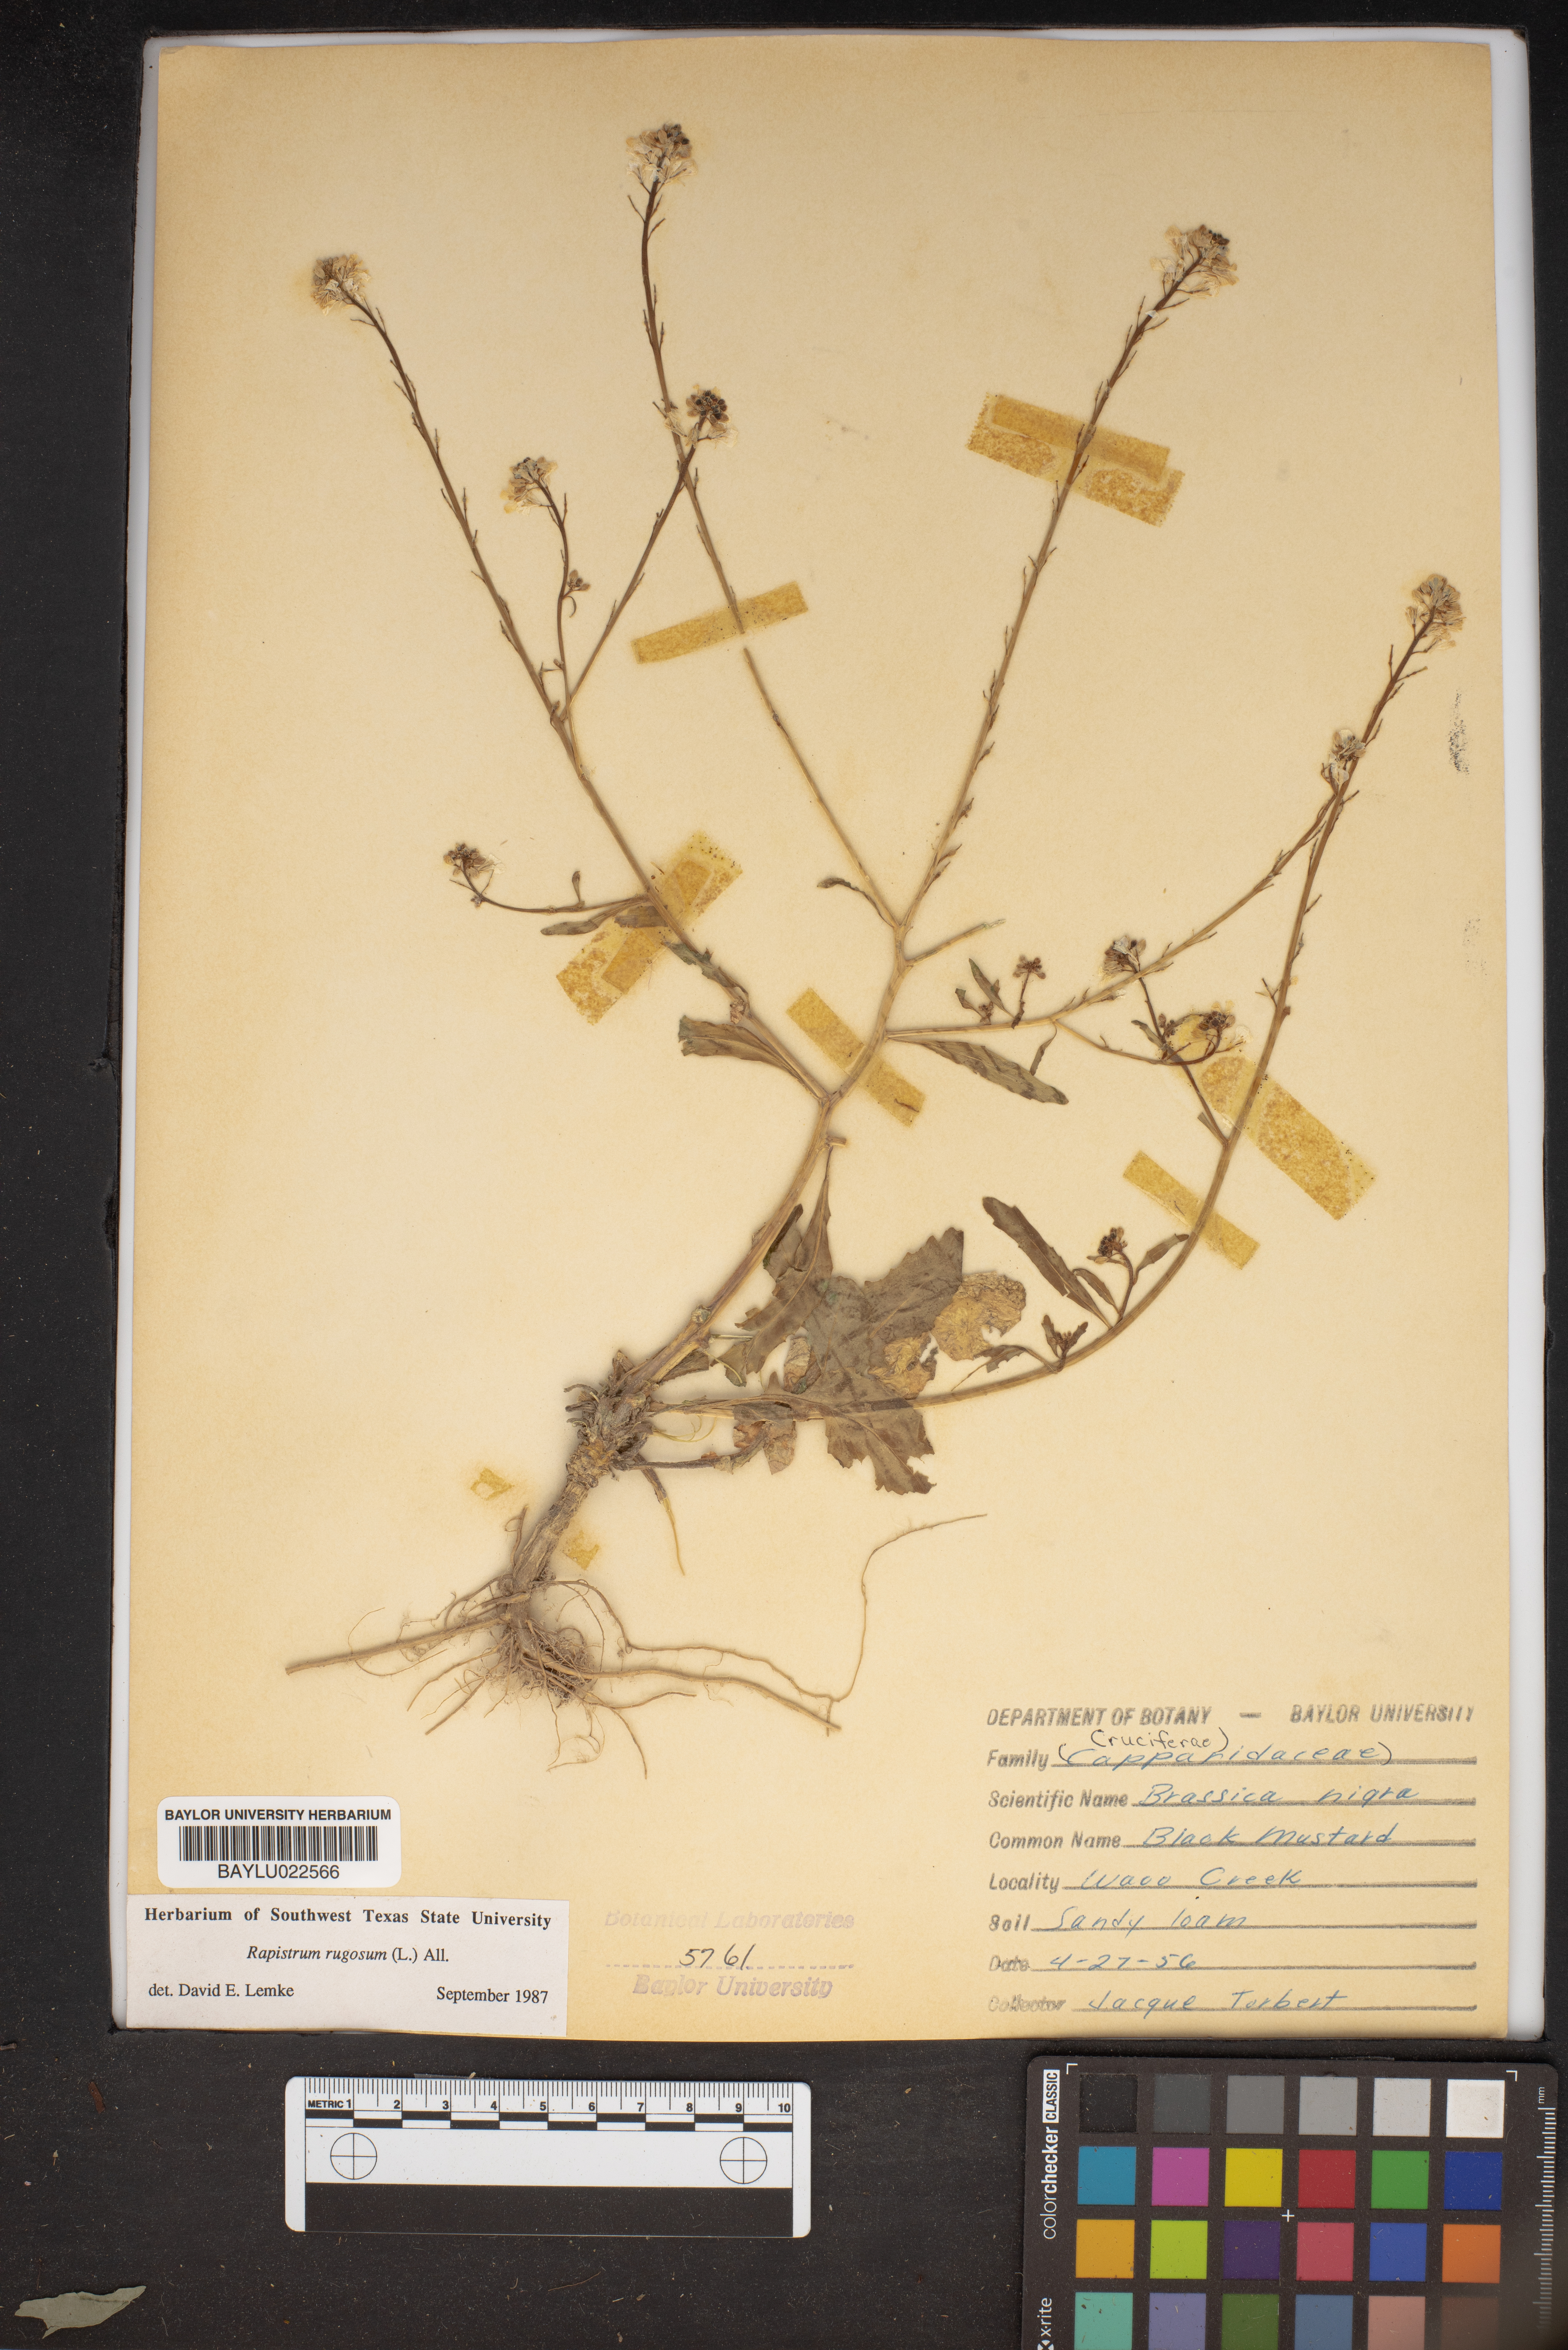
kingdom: Plantae
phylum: Tracheophyta
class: Magnoliopsida
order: Brassicales
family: Brassicaceae
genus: Rapistrum
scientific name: Rapistrum rugosum
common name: Annual bastardcabbage
